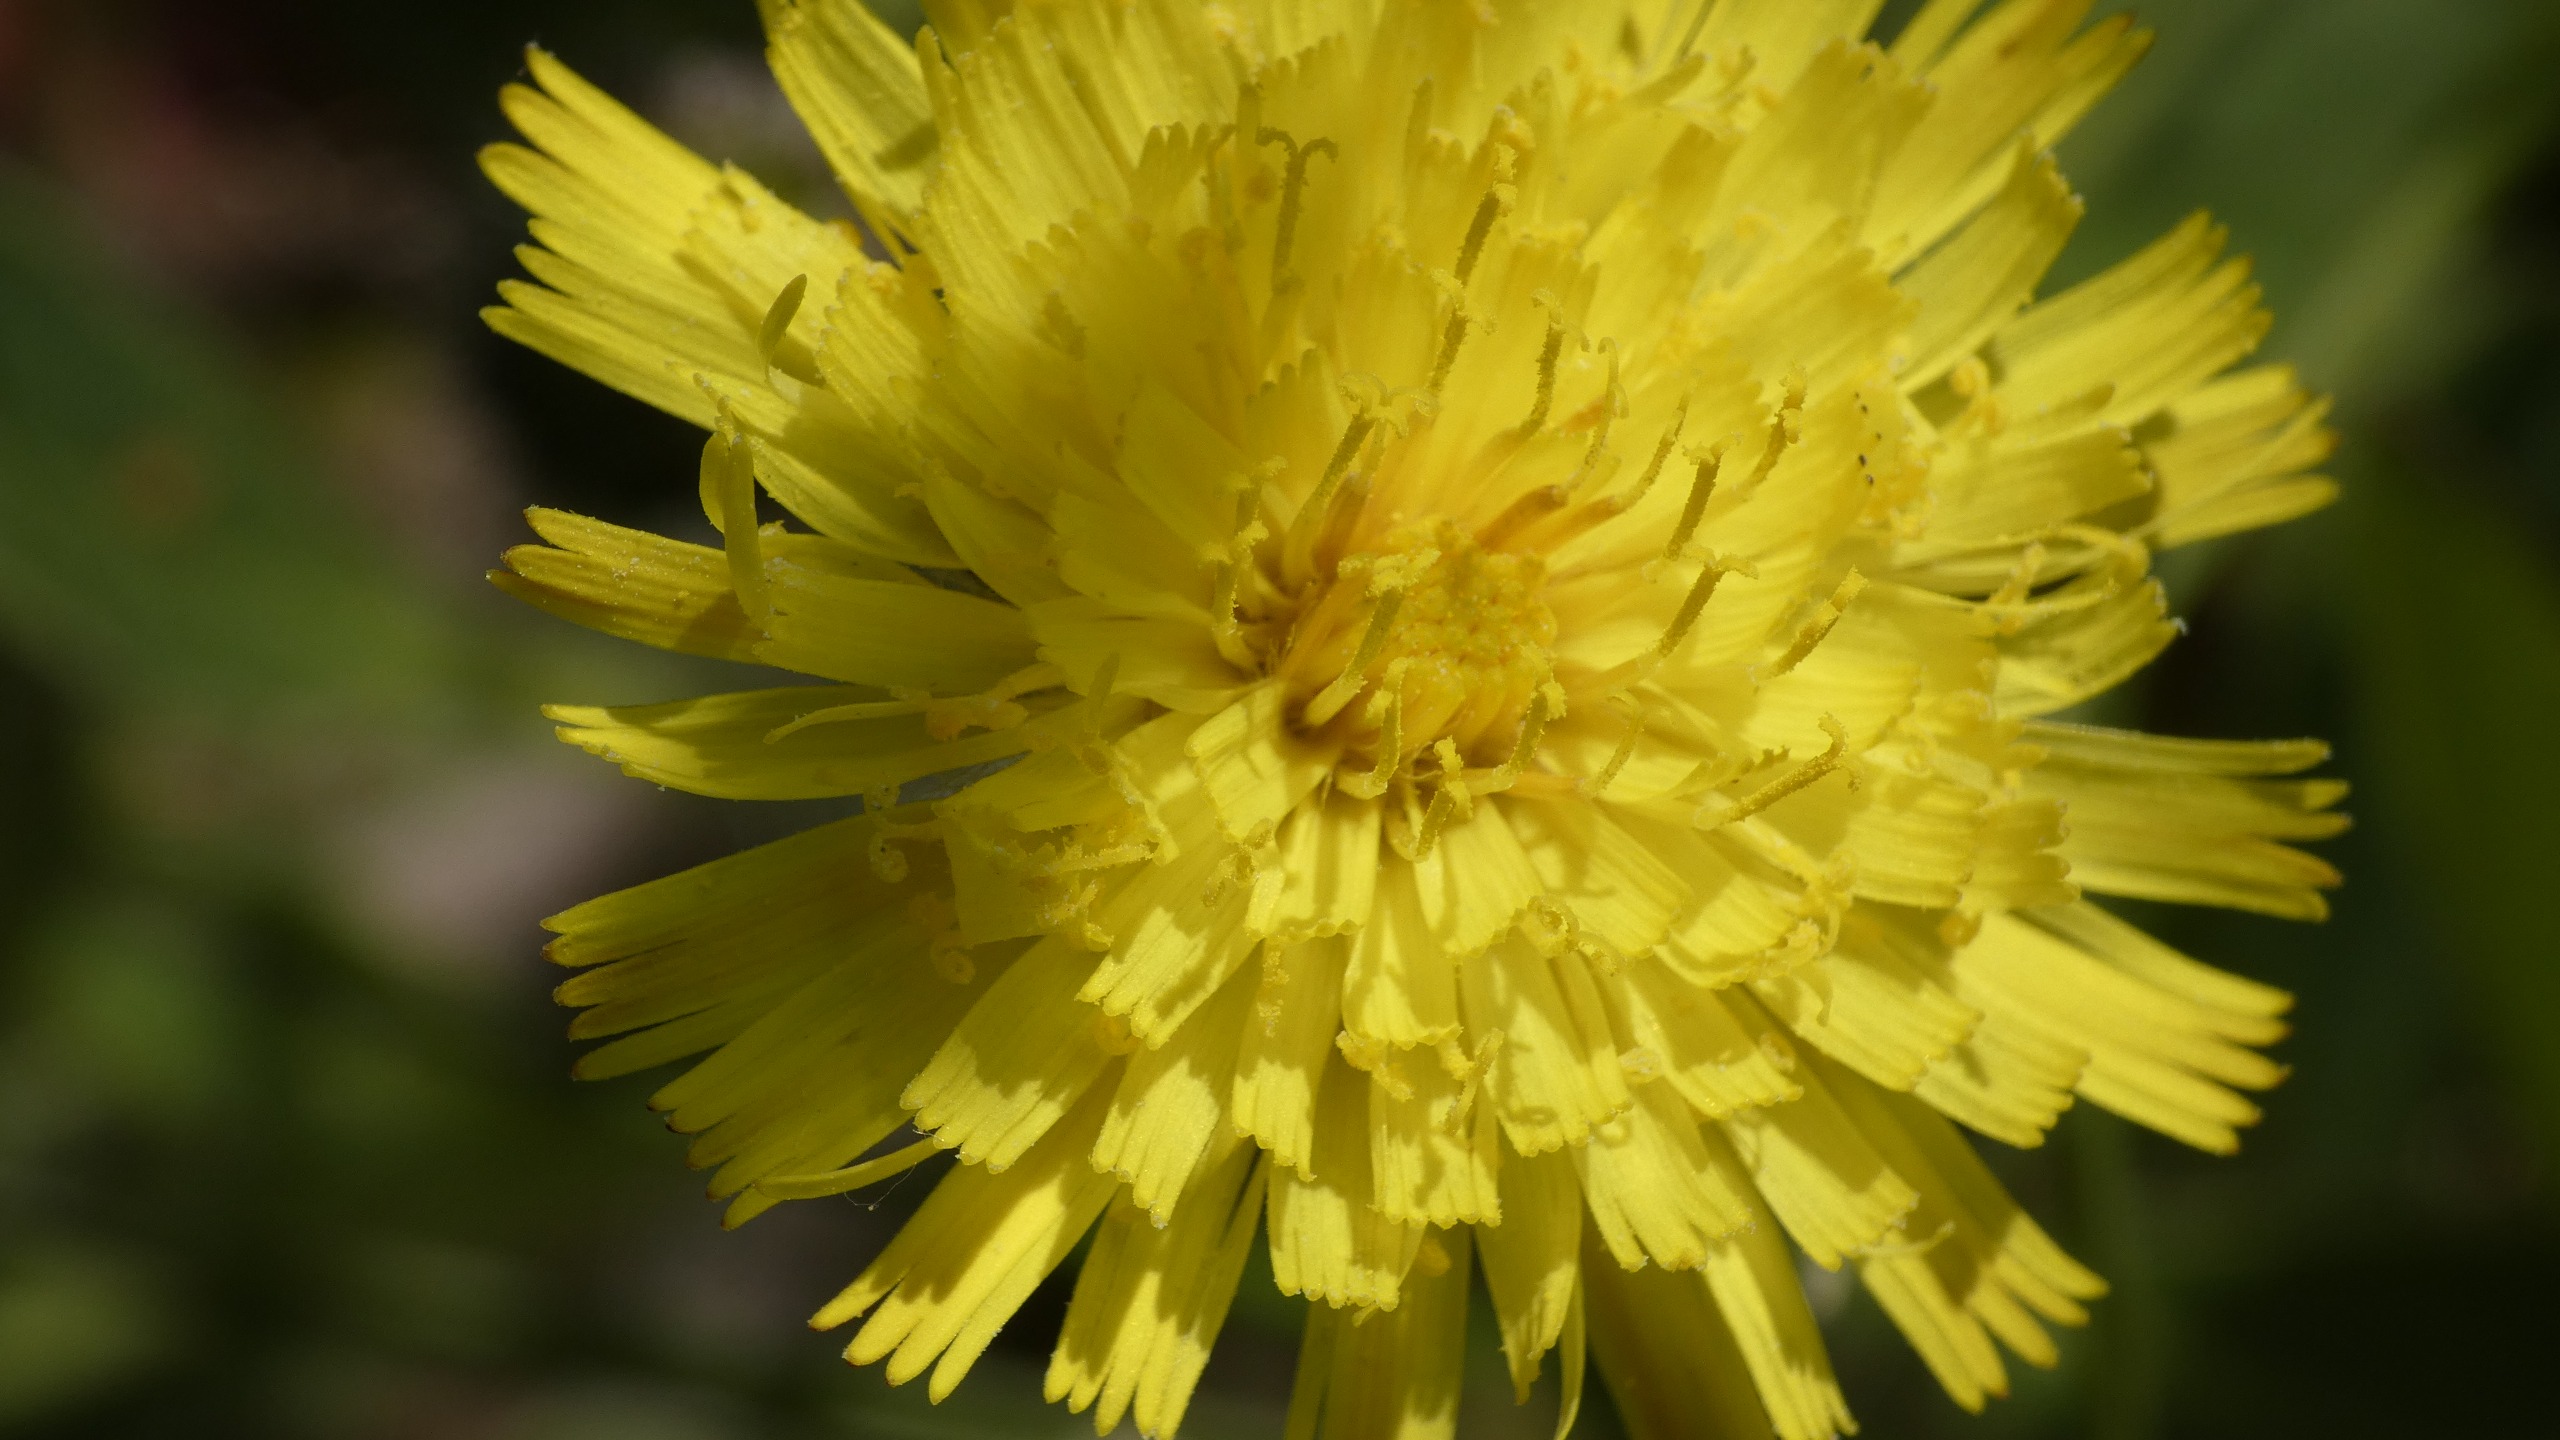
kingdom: Plantae
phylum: Tracheophyta
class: Magnoliopsida
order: Asterales
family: Asteraceae
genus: Pilosella
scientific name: Pilosella officinarum
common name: Håret høgeurt
